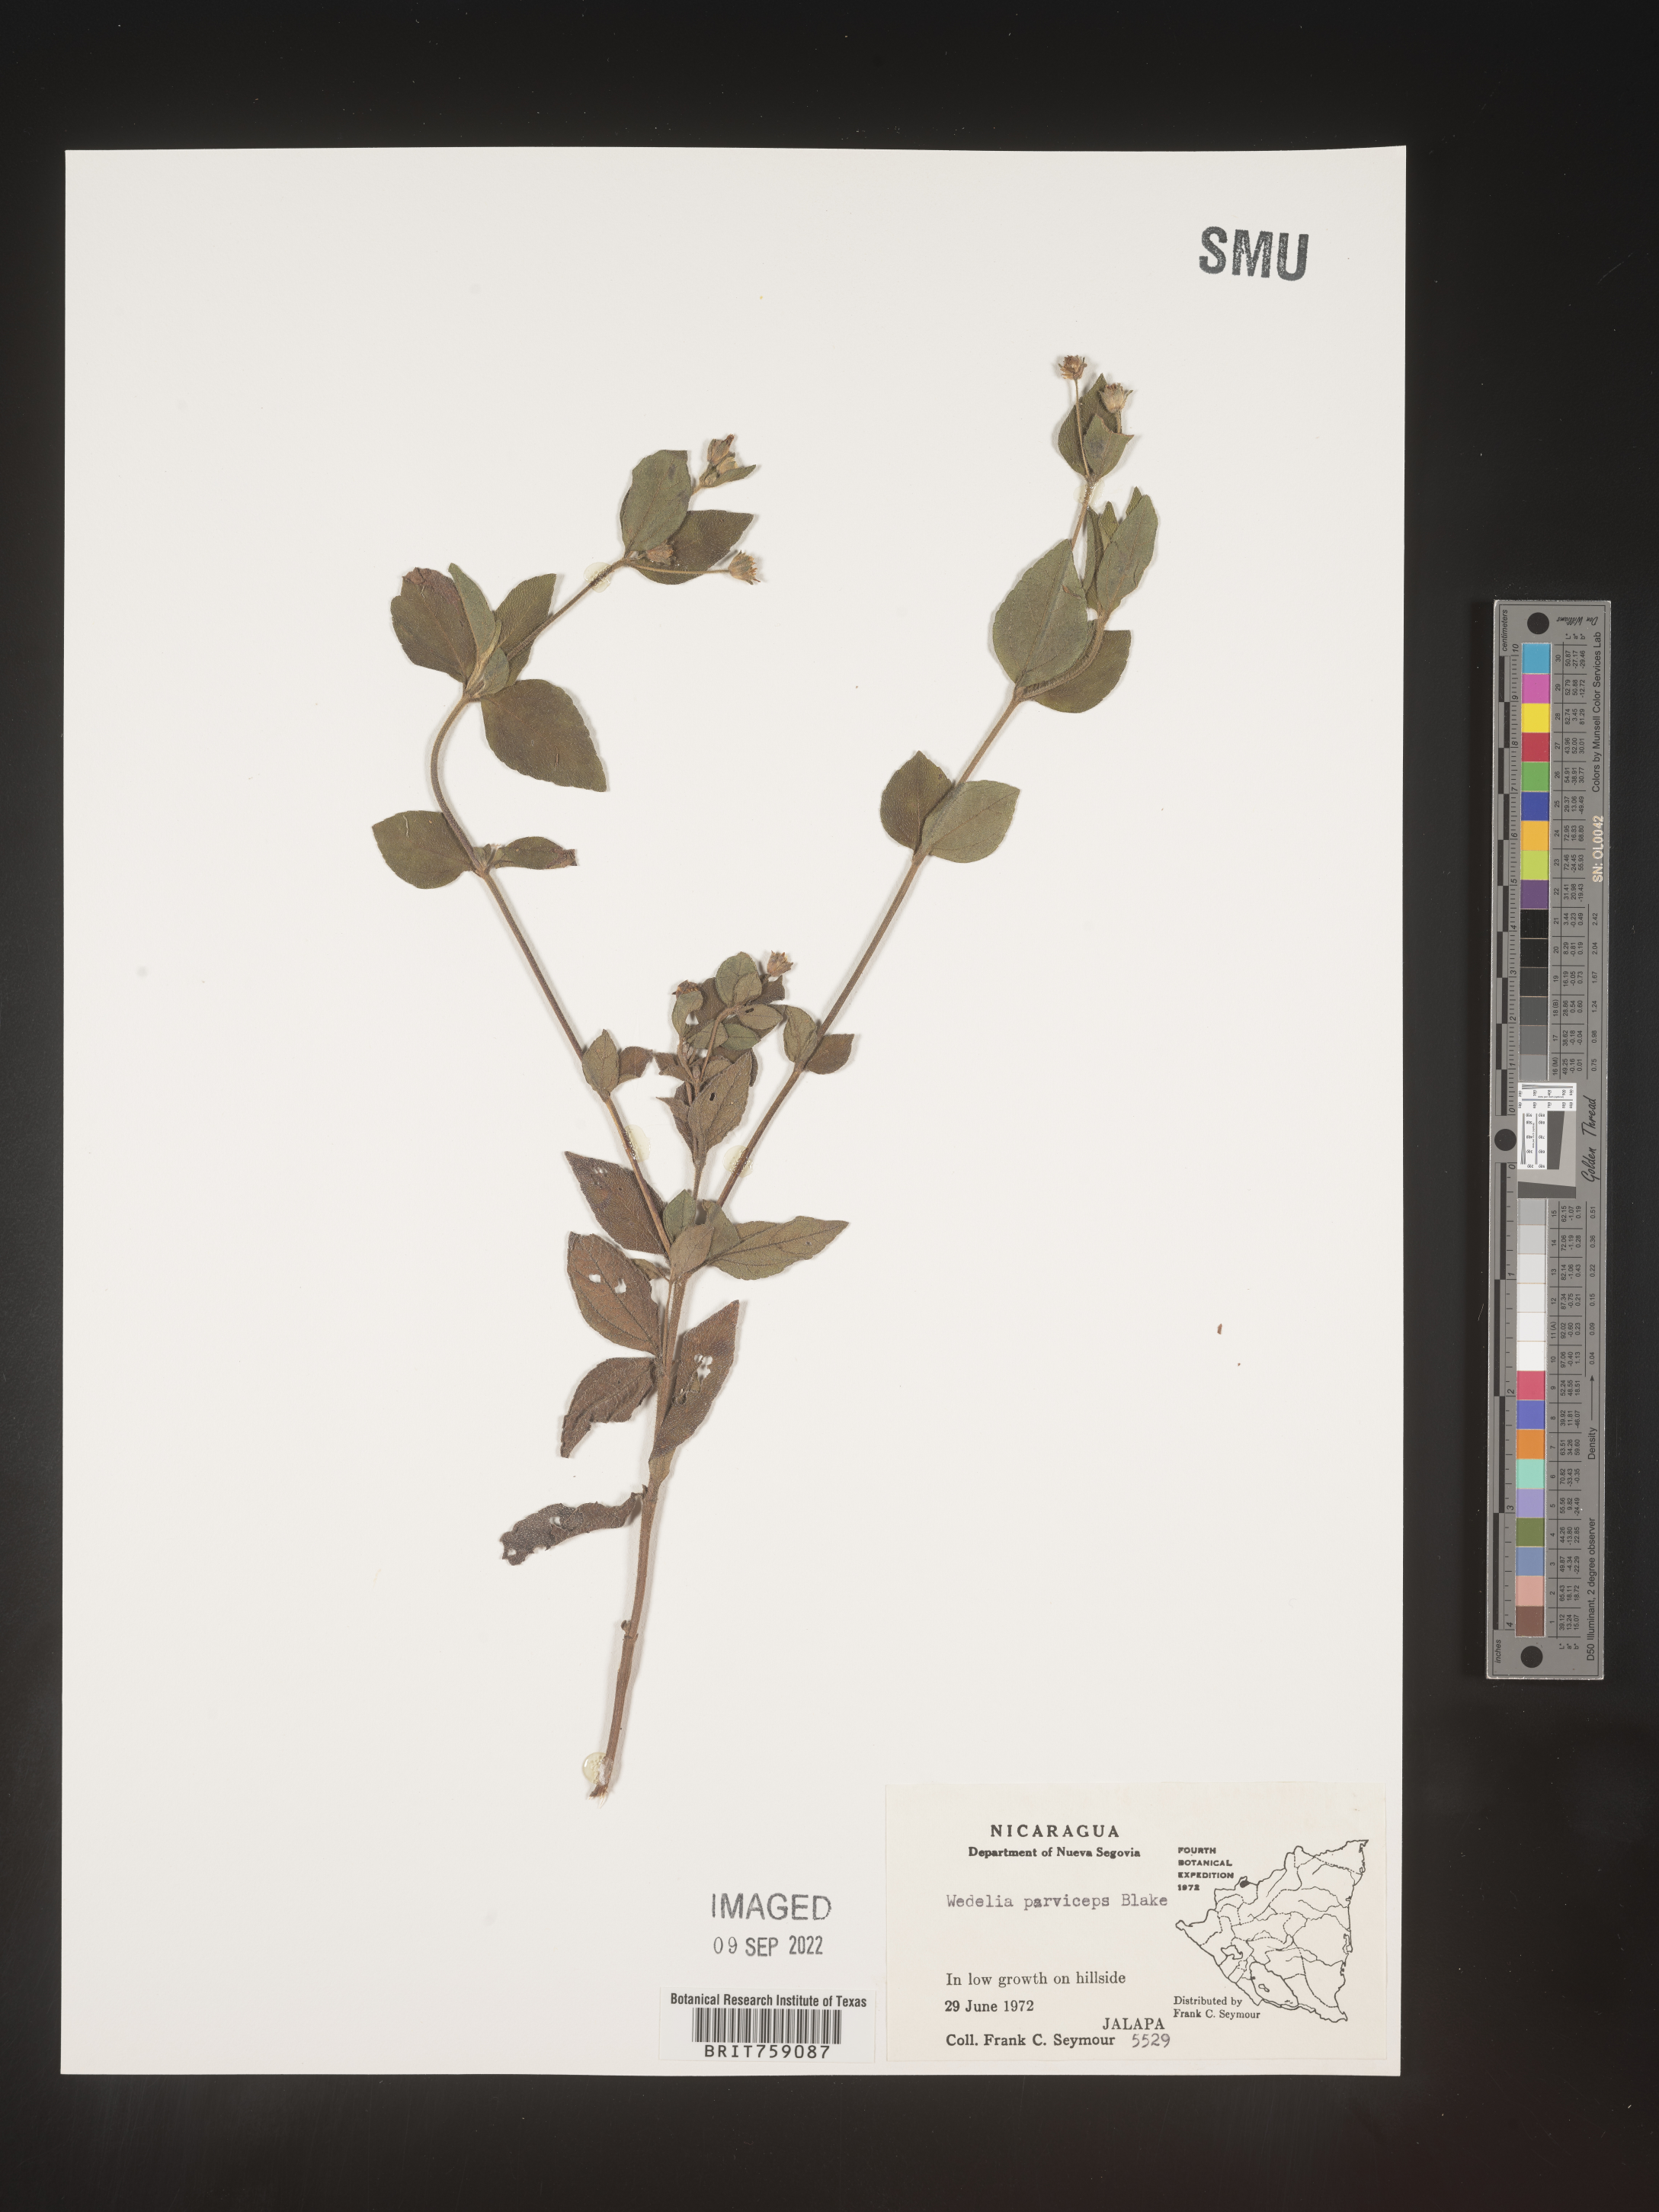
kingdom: Plantae
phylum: Tracheophyta
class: Magnoliopsida
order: Asterales
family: Asteraceae
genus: Wedelia
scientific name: Wedelia
